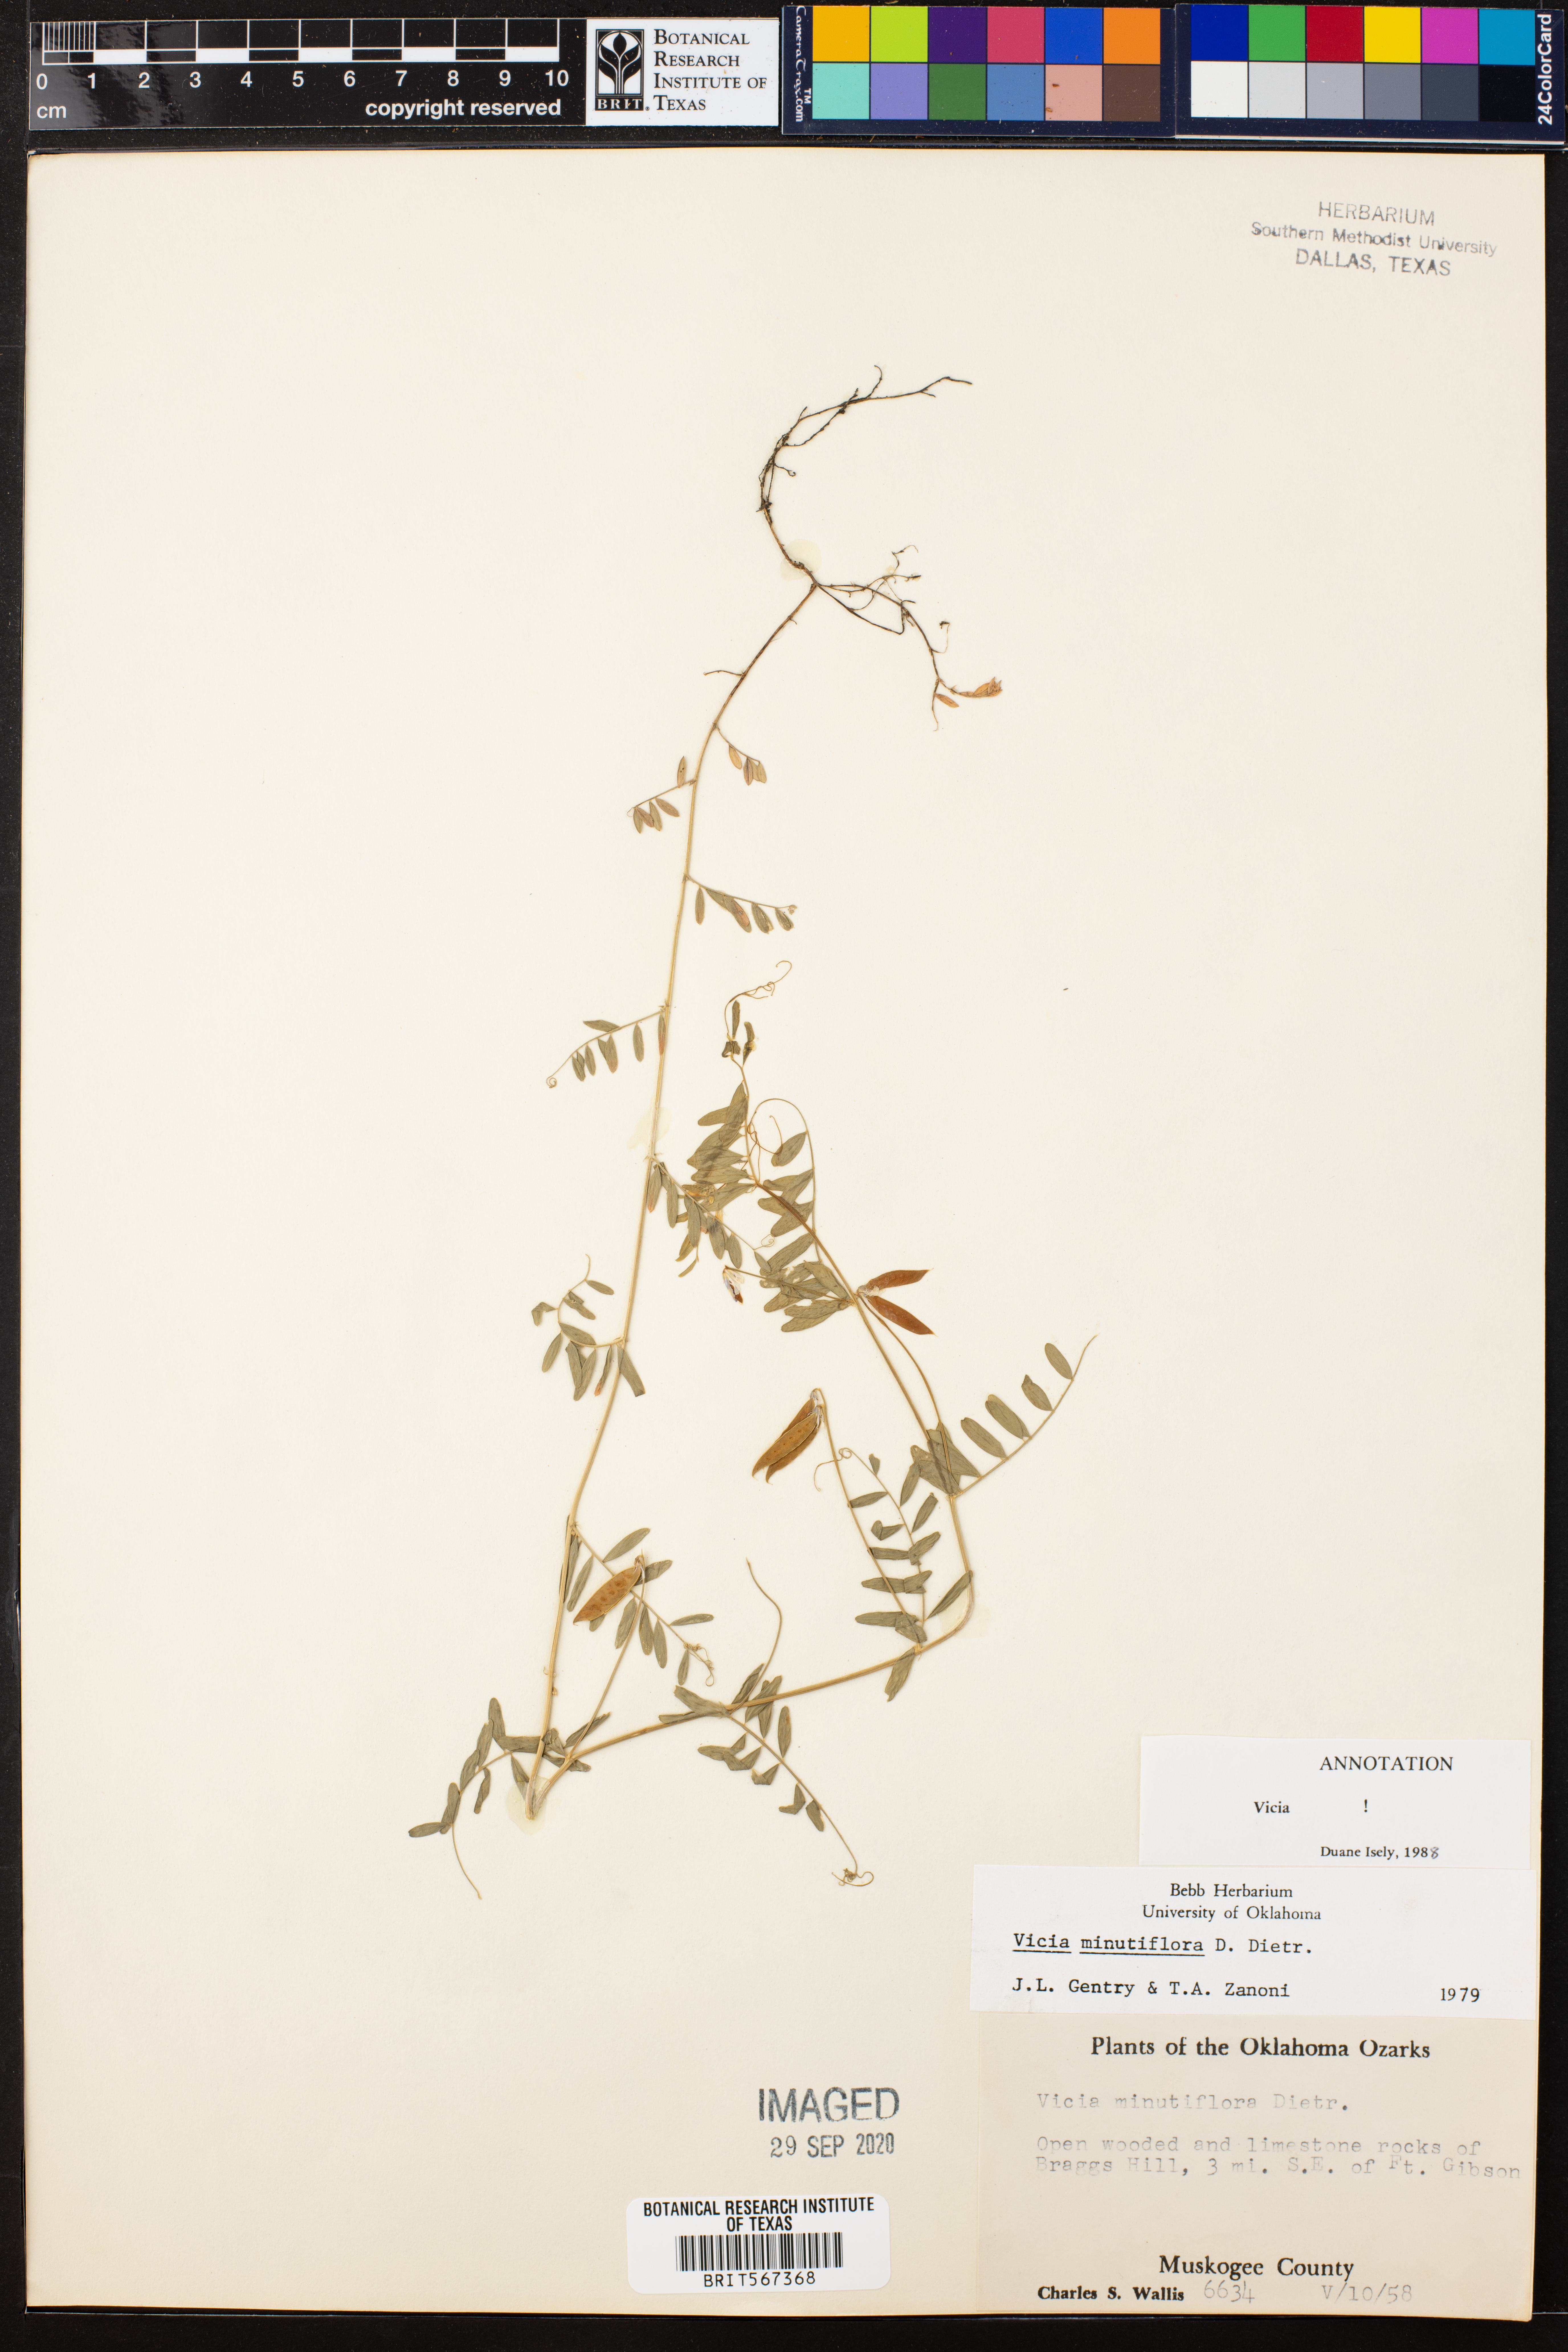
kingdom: Plantae
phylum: Tracheophyta
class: Magnoliopsida
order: Fabales
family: Fabaceae
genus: Vicia
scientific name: Vicia minutiflora
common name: Pygmy-flower vetch
